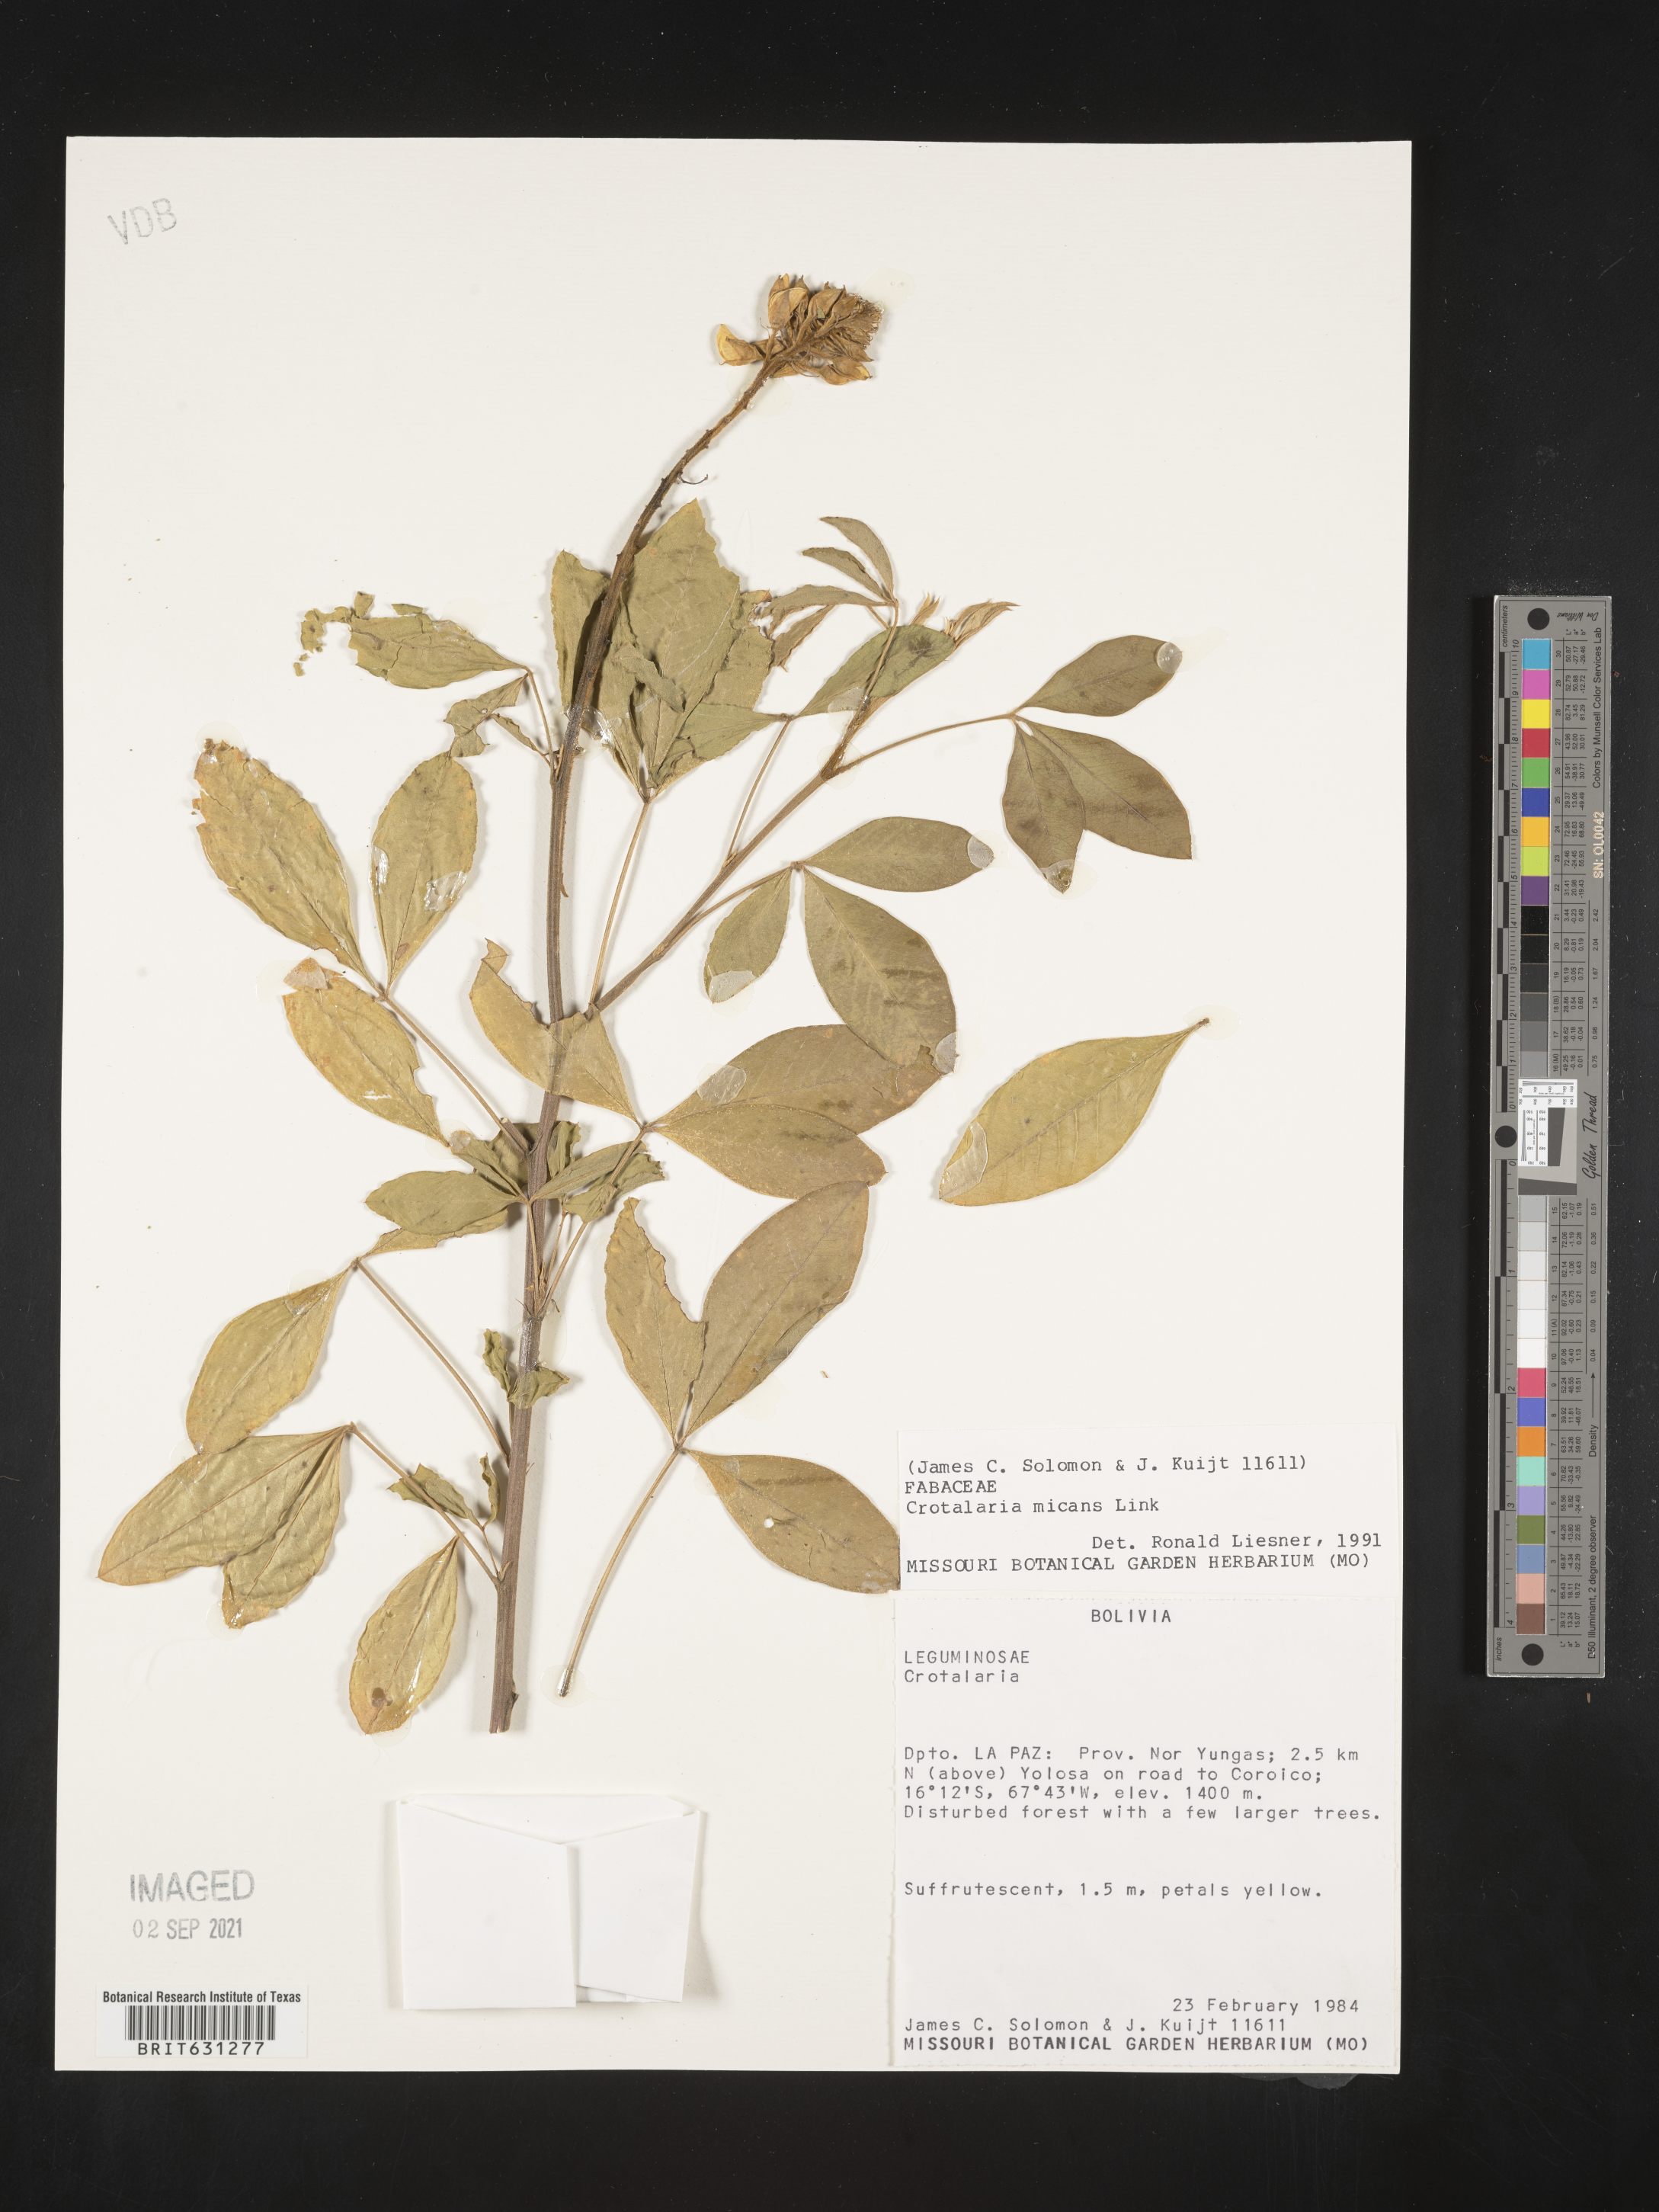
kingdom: Plantae
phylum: Tracheophyta
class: Magnoliopsida
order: Fabales
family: Fabaceae
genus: Crotalaria
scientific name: Crotalaria micans
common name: Caracas rattlebox
